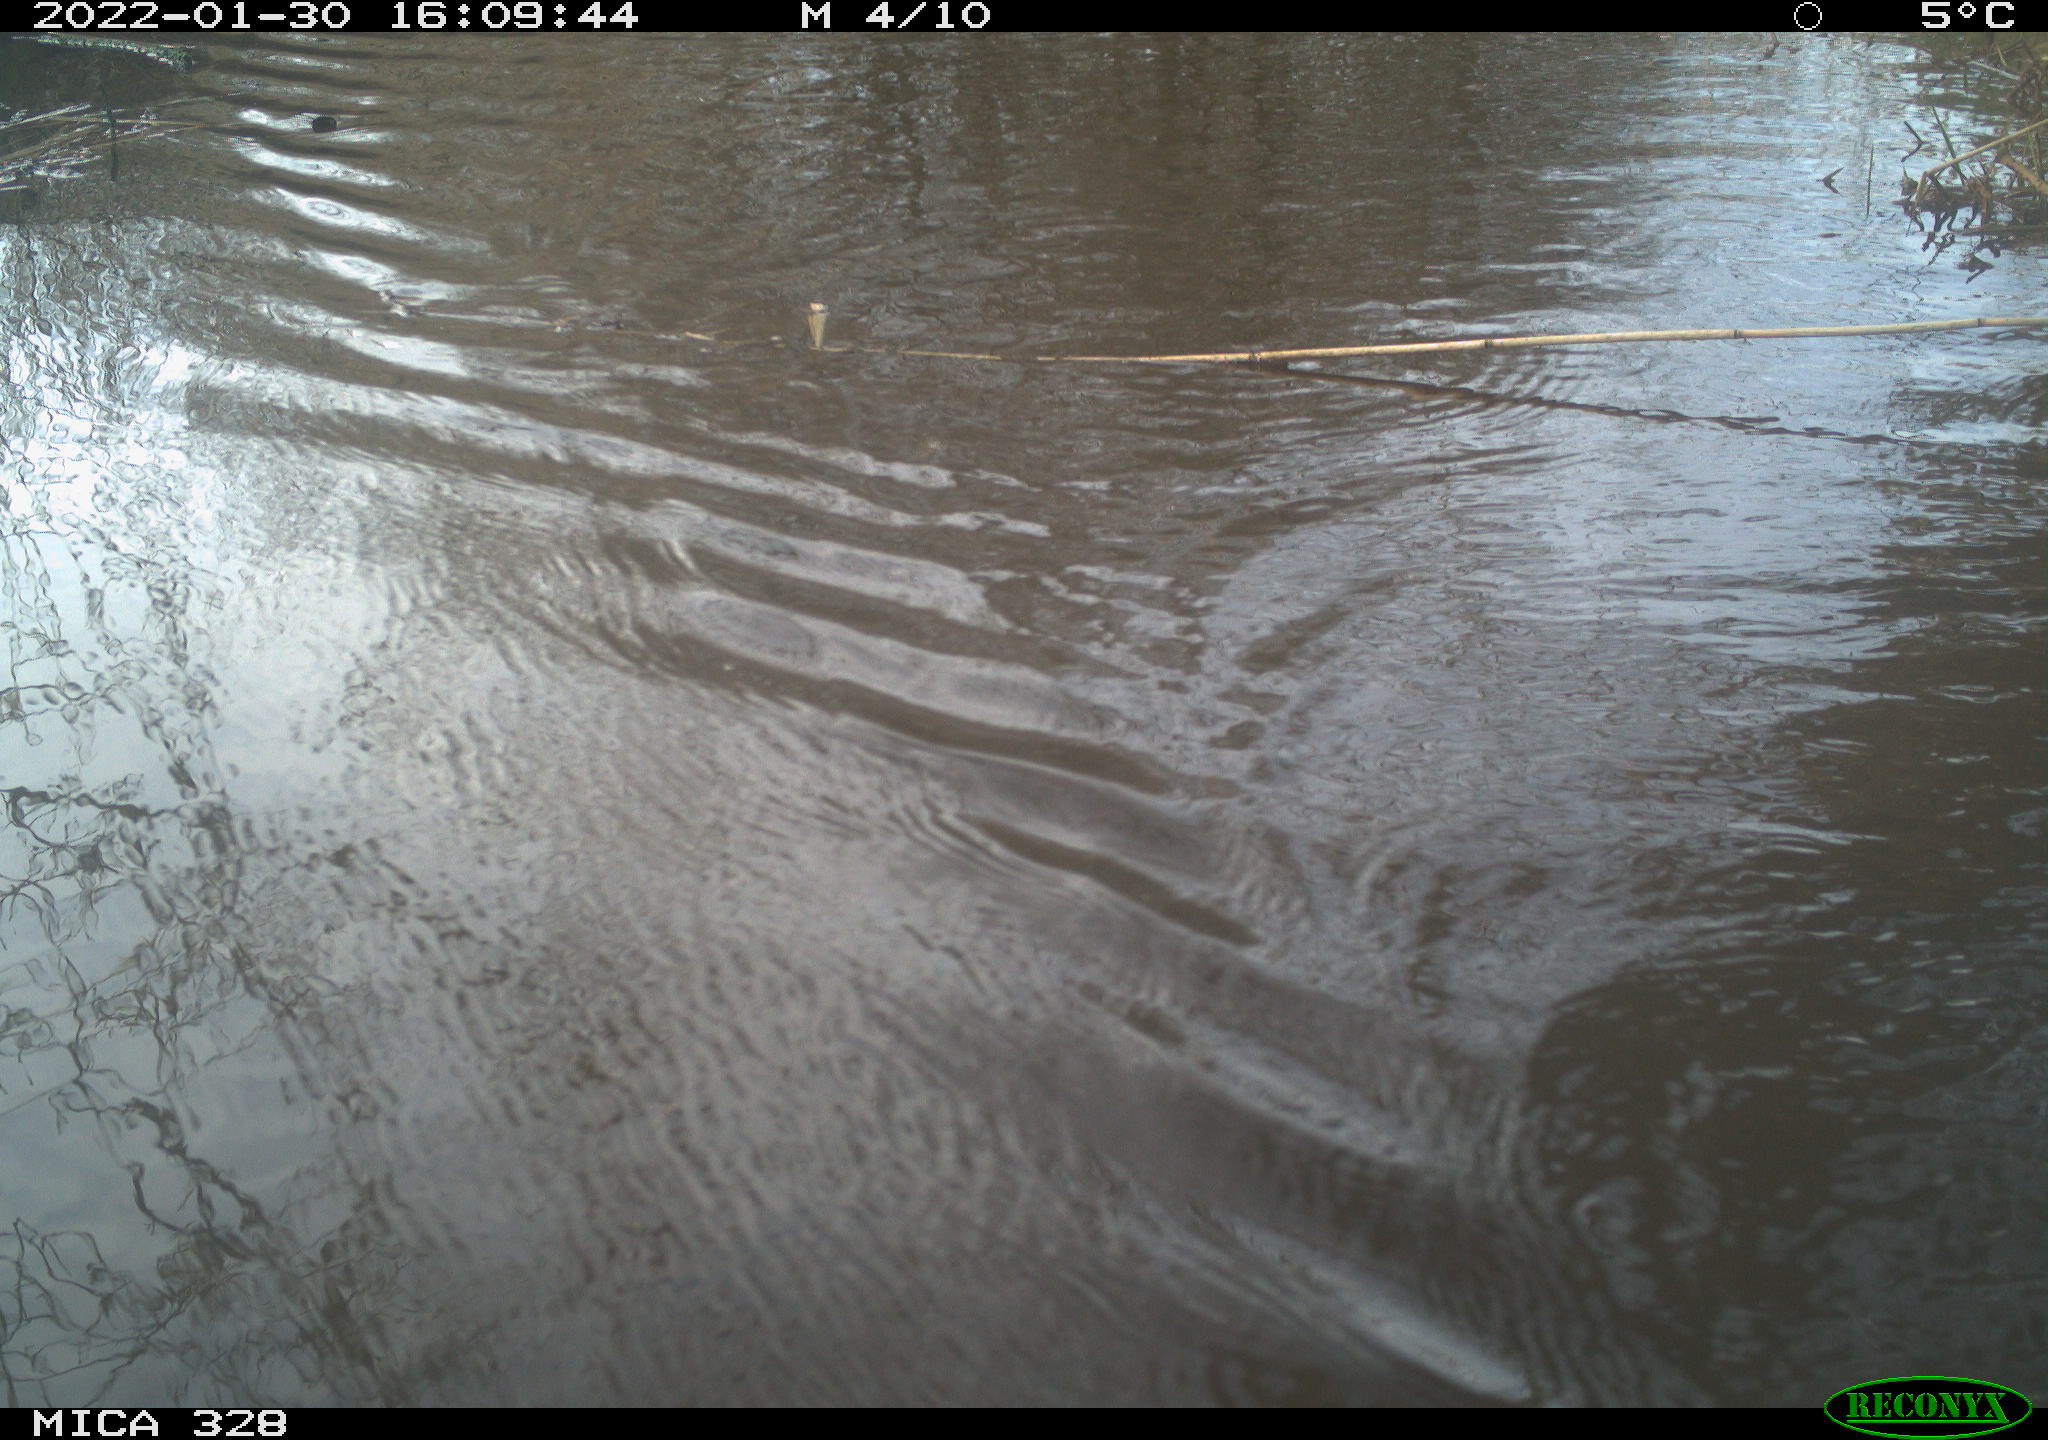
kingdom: Animalia
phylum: Chordata
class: Mammalia
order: Rodentia
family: Cricetidae
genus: Ondatra
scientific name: Ondatra zibethicus
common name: Muskrat
